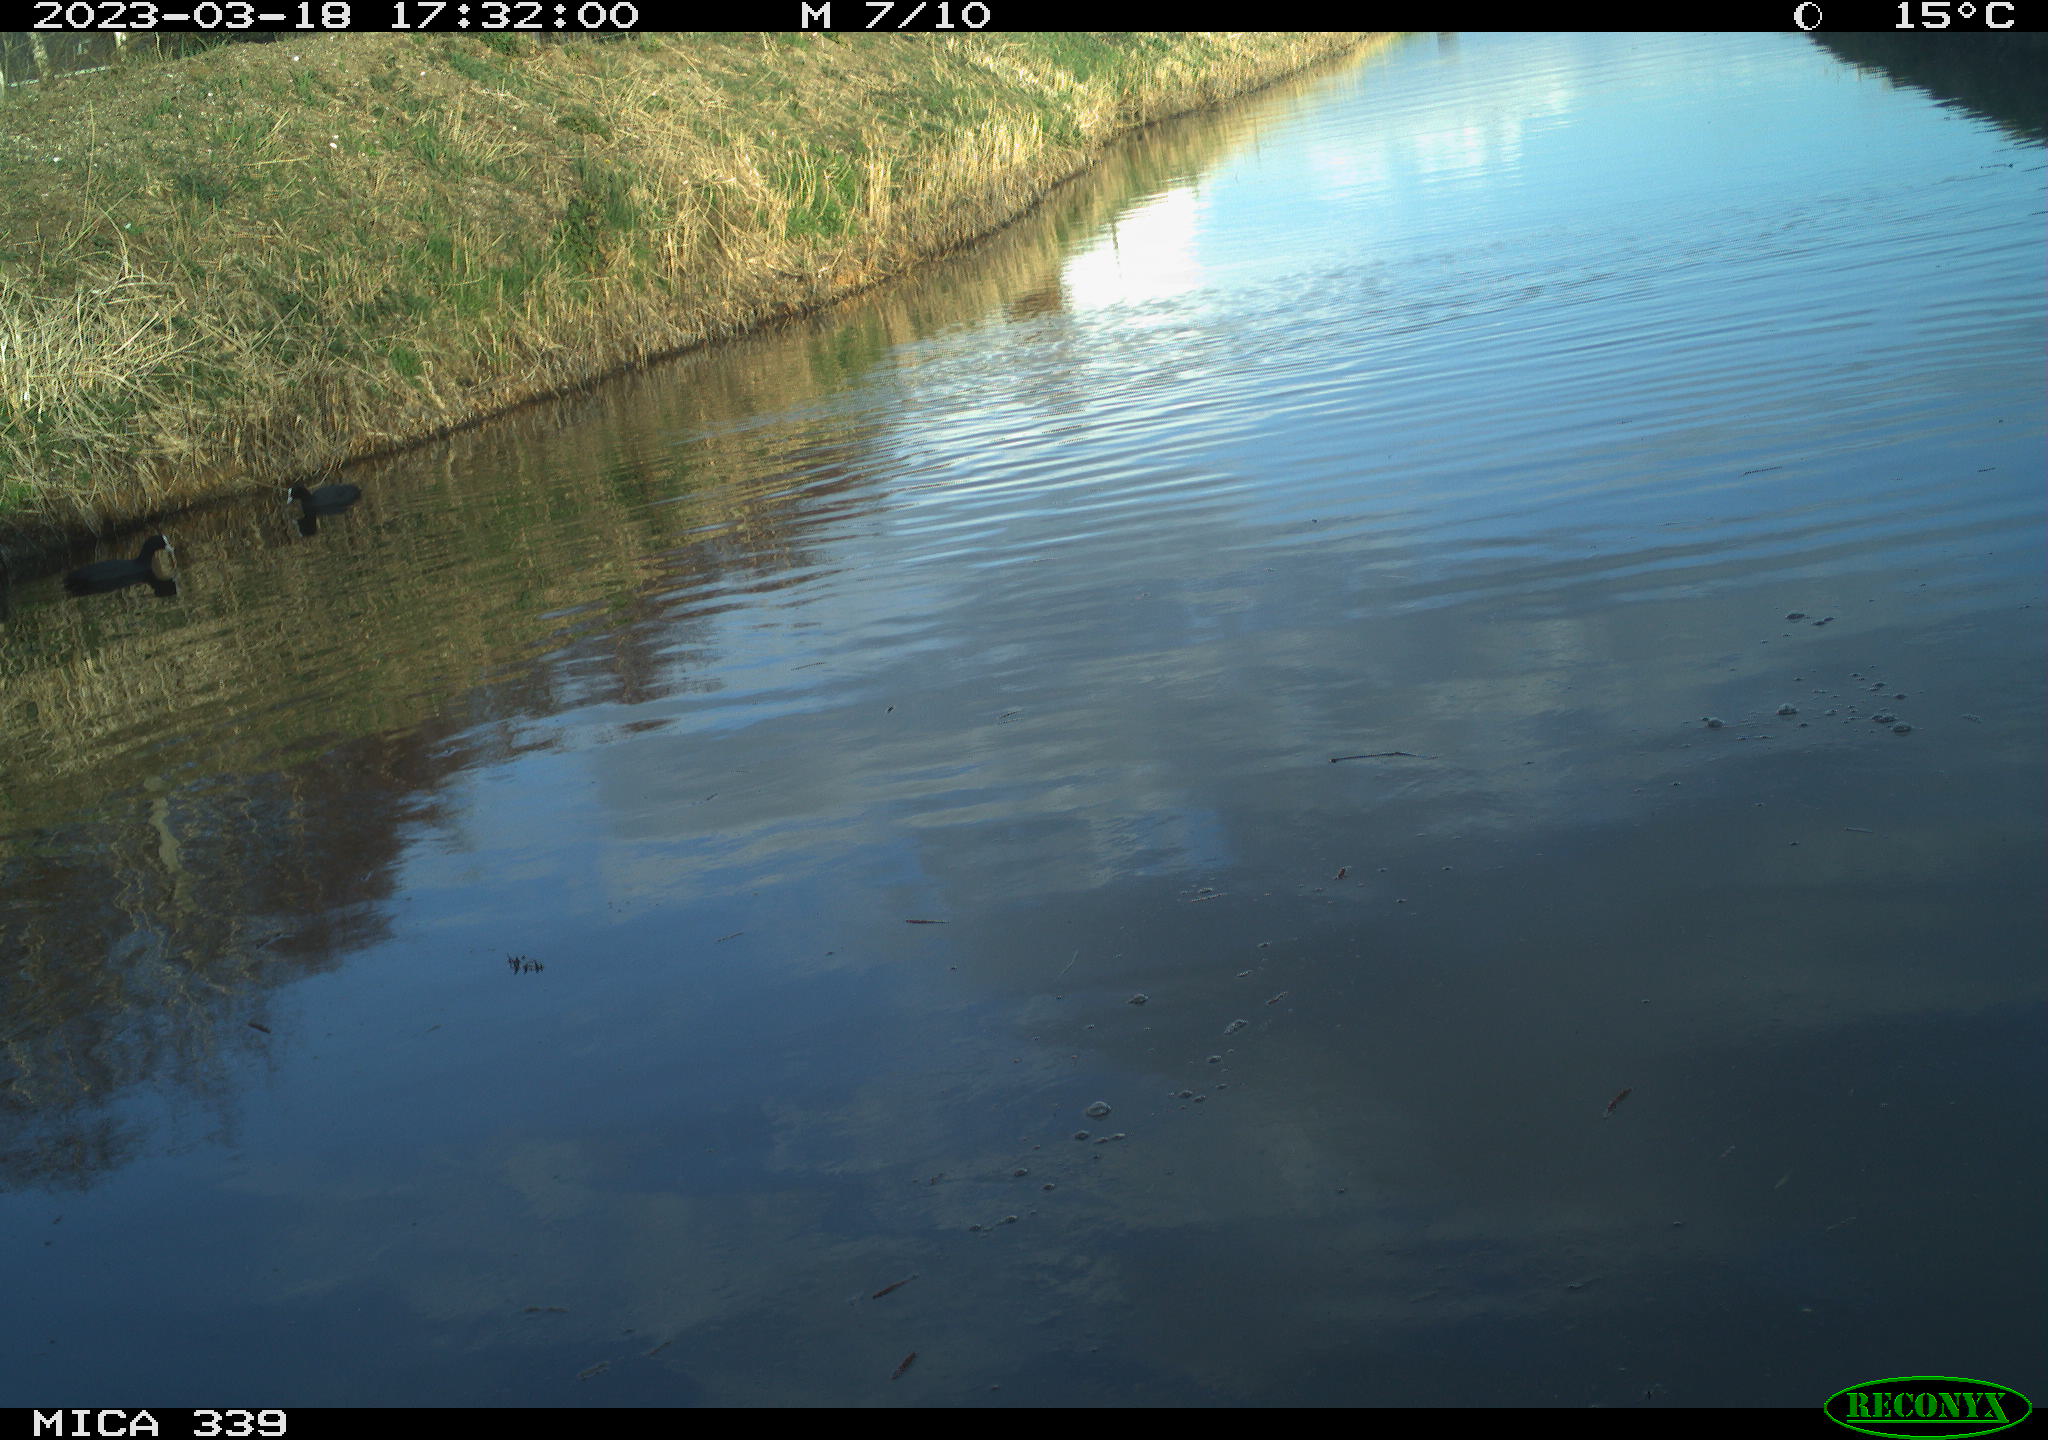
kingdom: Animalia
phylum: Chordata
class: Aves
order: Pelecaniformes
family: Ardeidae
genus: Ardea
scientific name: Ardea
